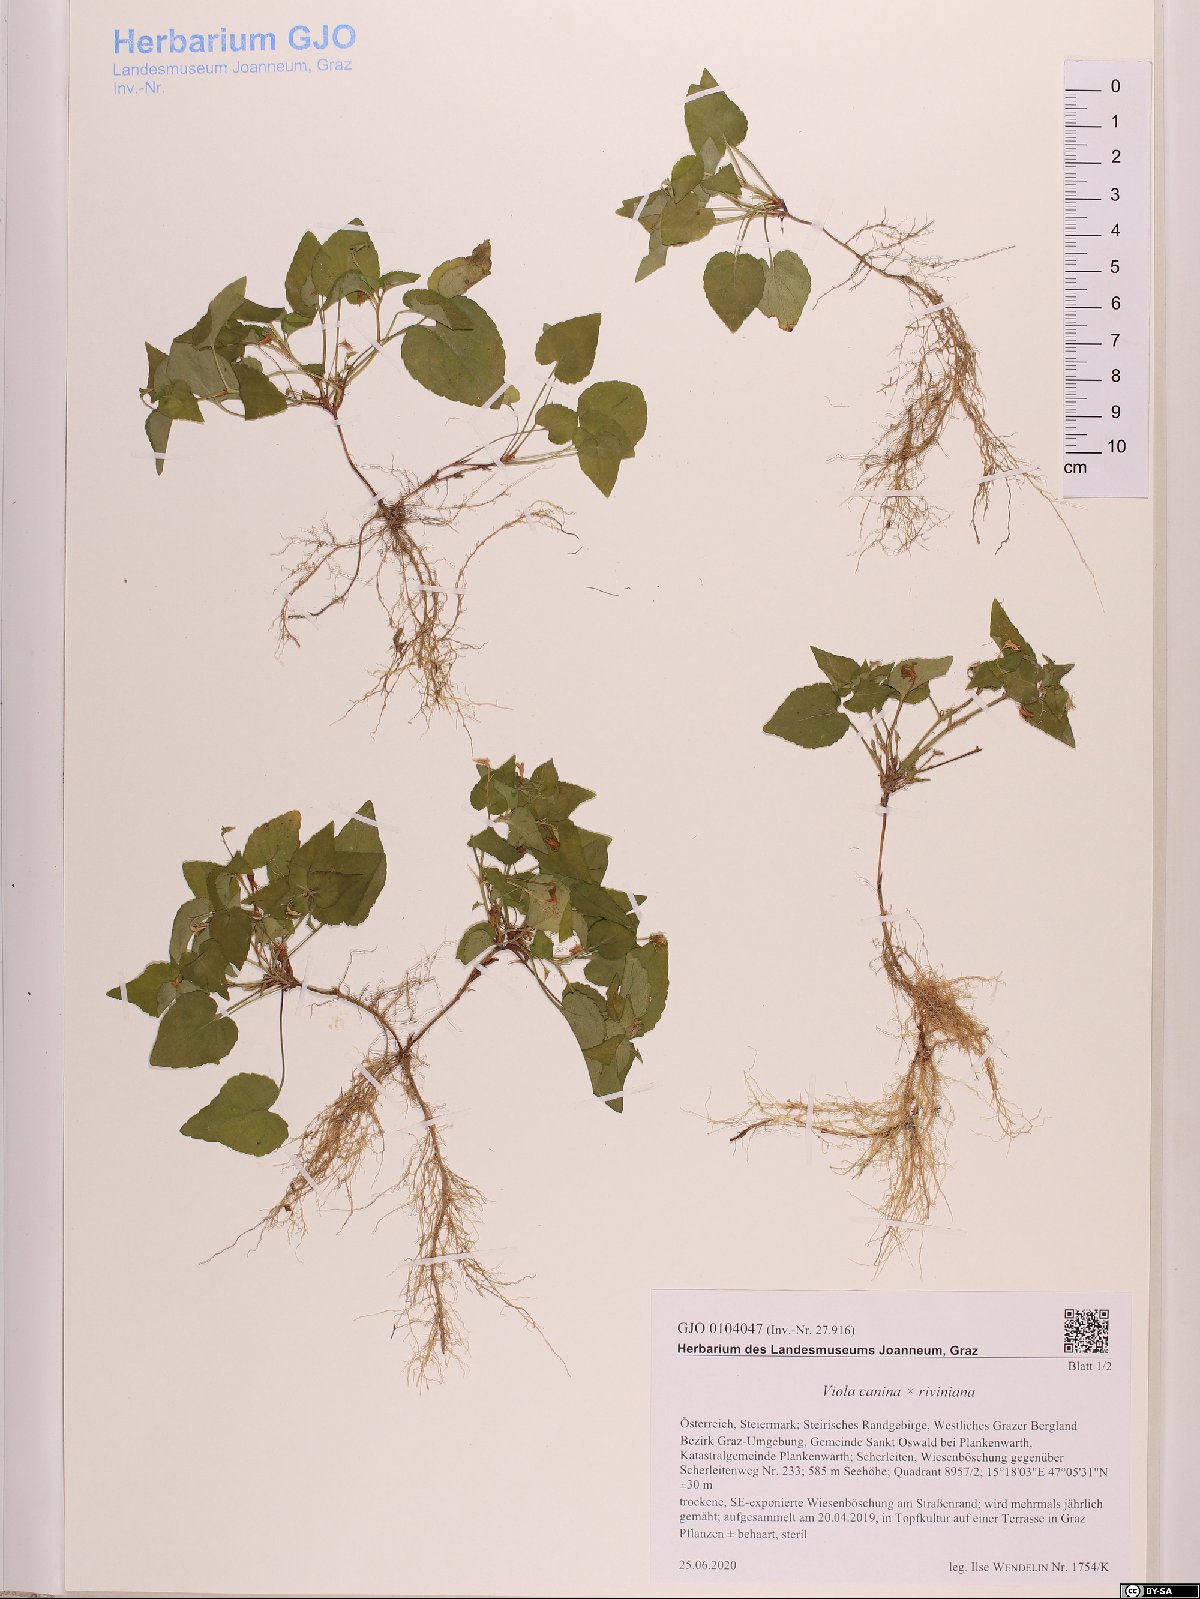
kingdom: Plantae
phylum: Tracheophyta
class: Magnoliopsida
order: Malpighiales
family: Violaceae
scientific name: Violaceae
